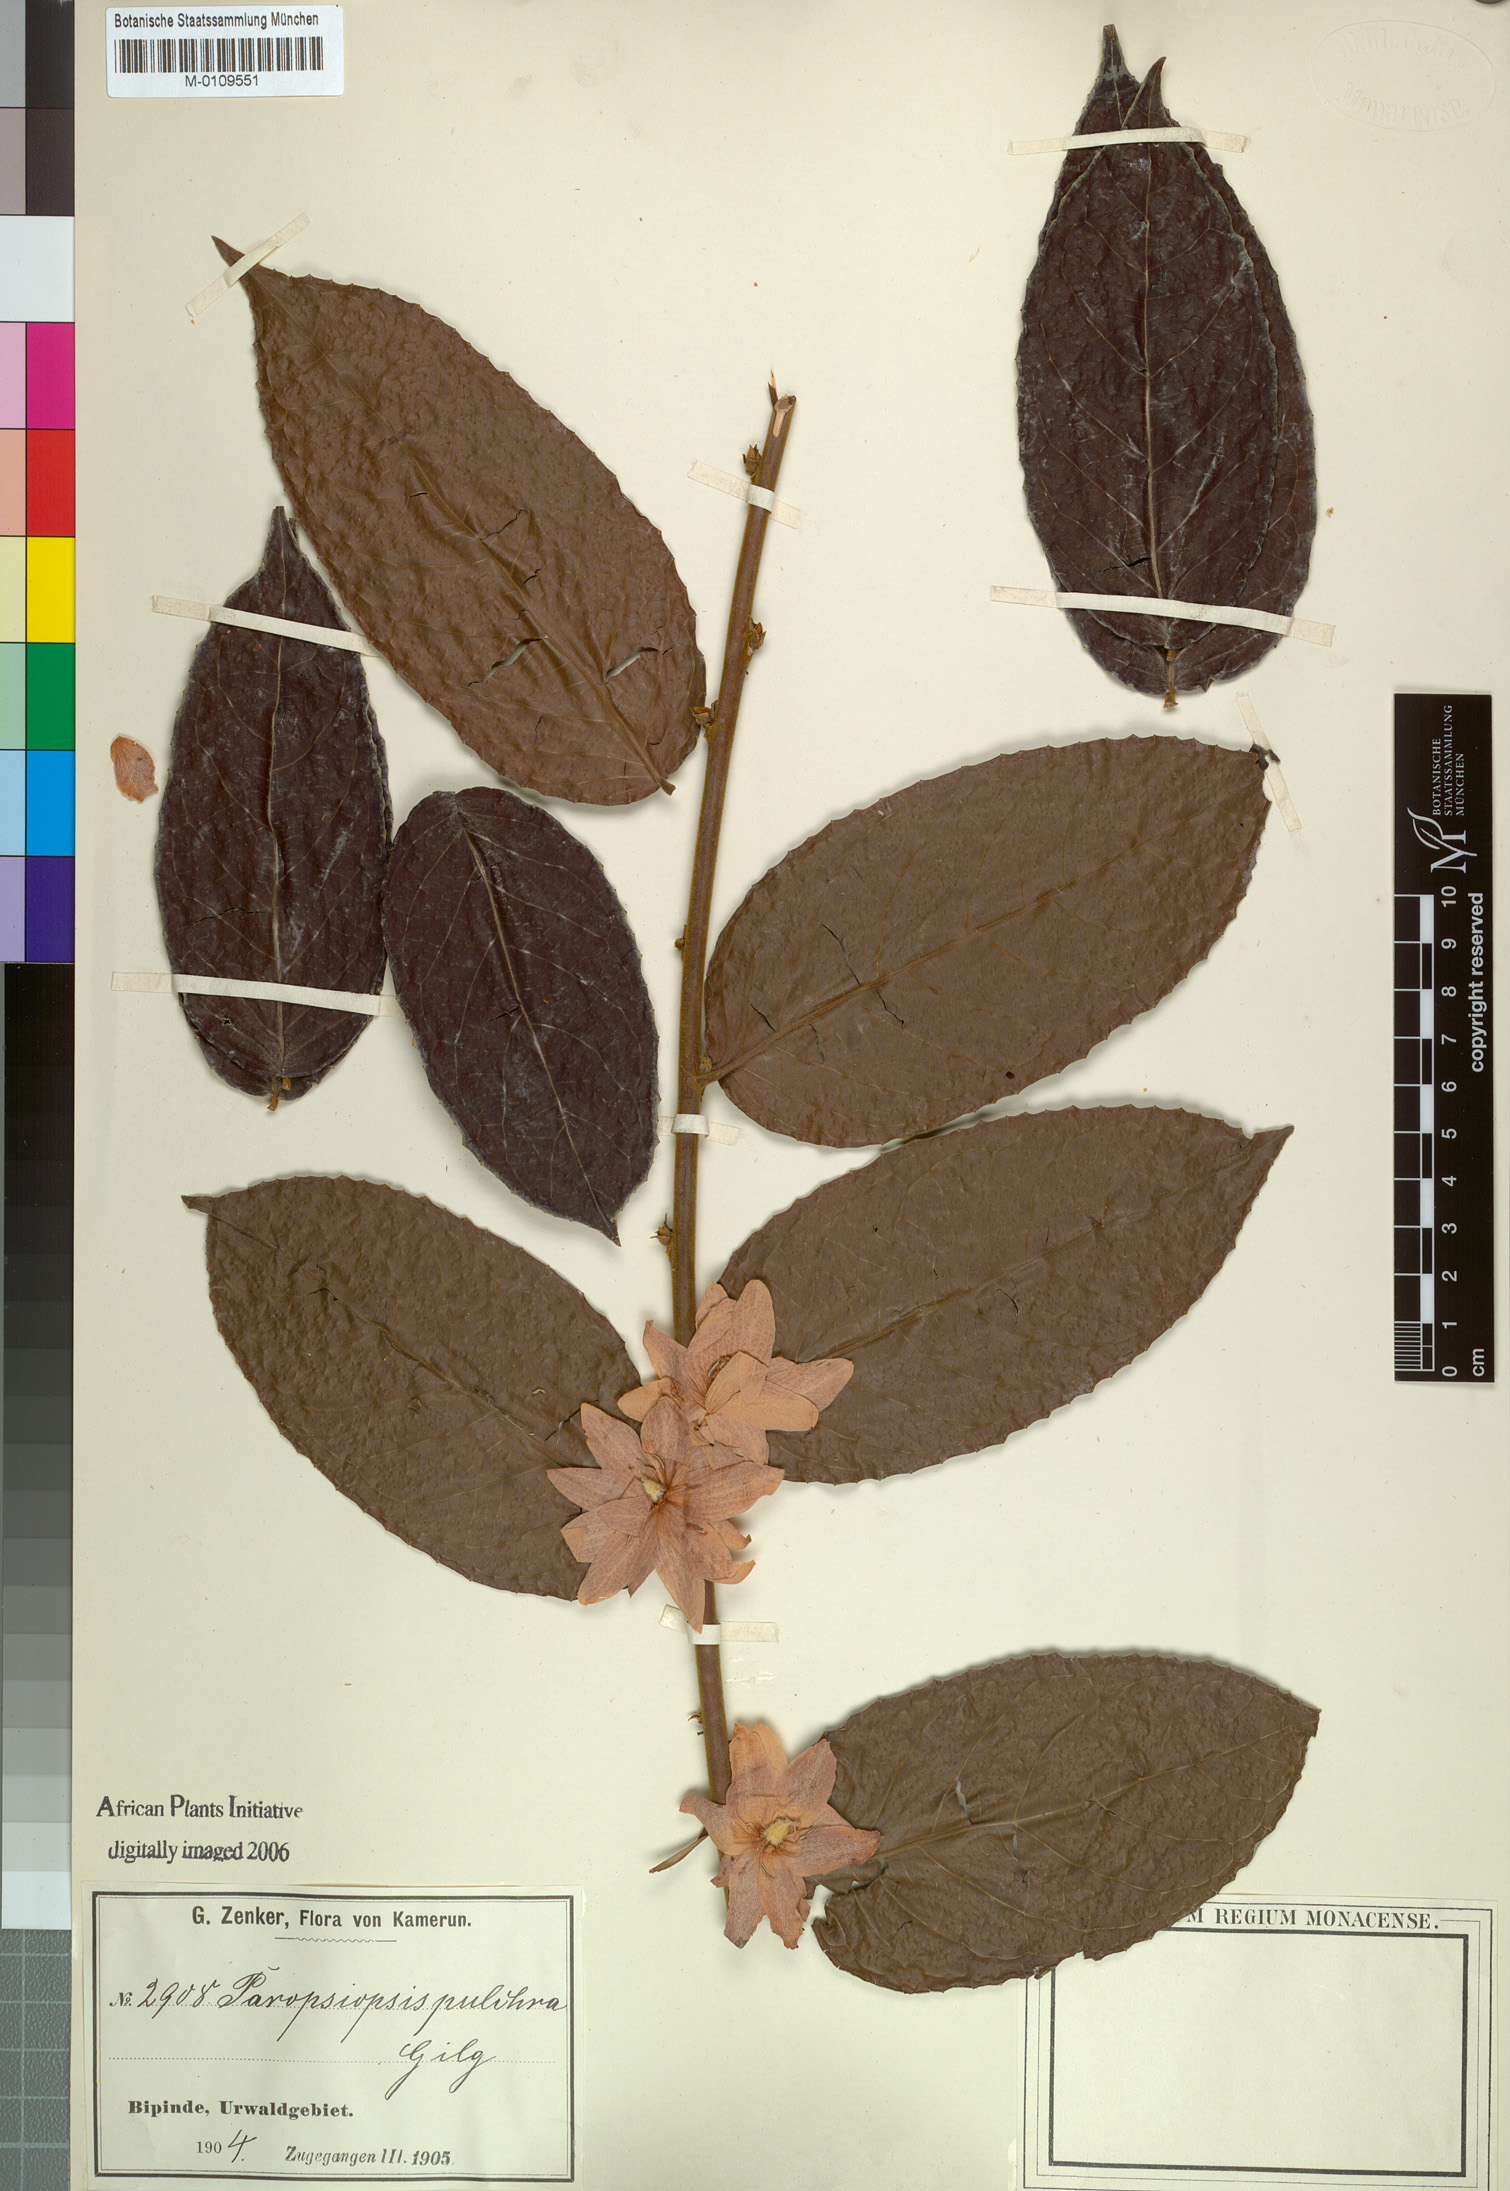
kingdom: Plantae
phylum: Tracheophyta
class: Magnoliopsida
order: Malpighiales
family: Passifloraceae
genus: Paropsiopsis
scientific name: Paropsiopsis pulchra
